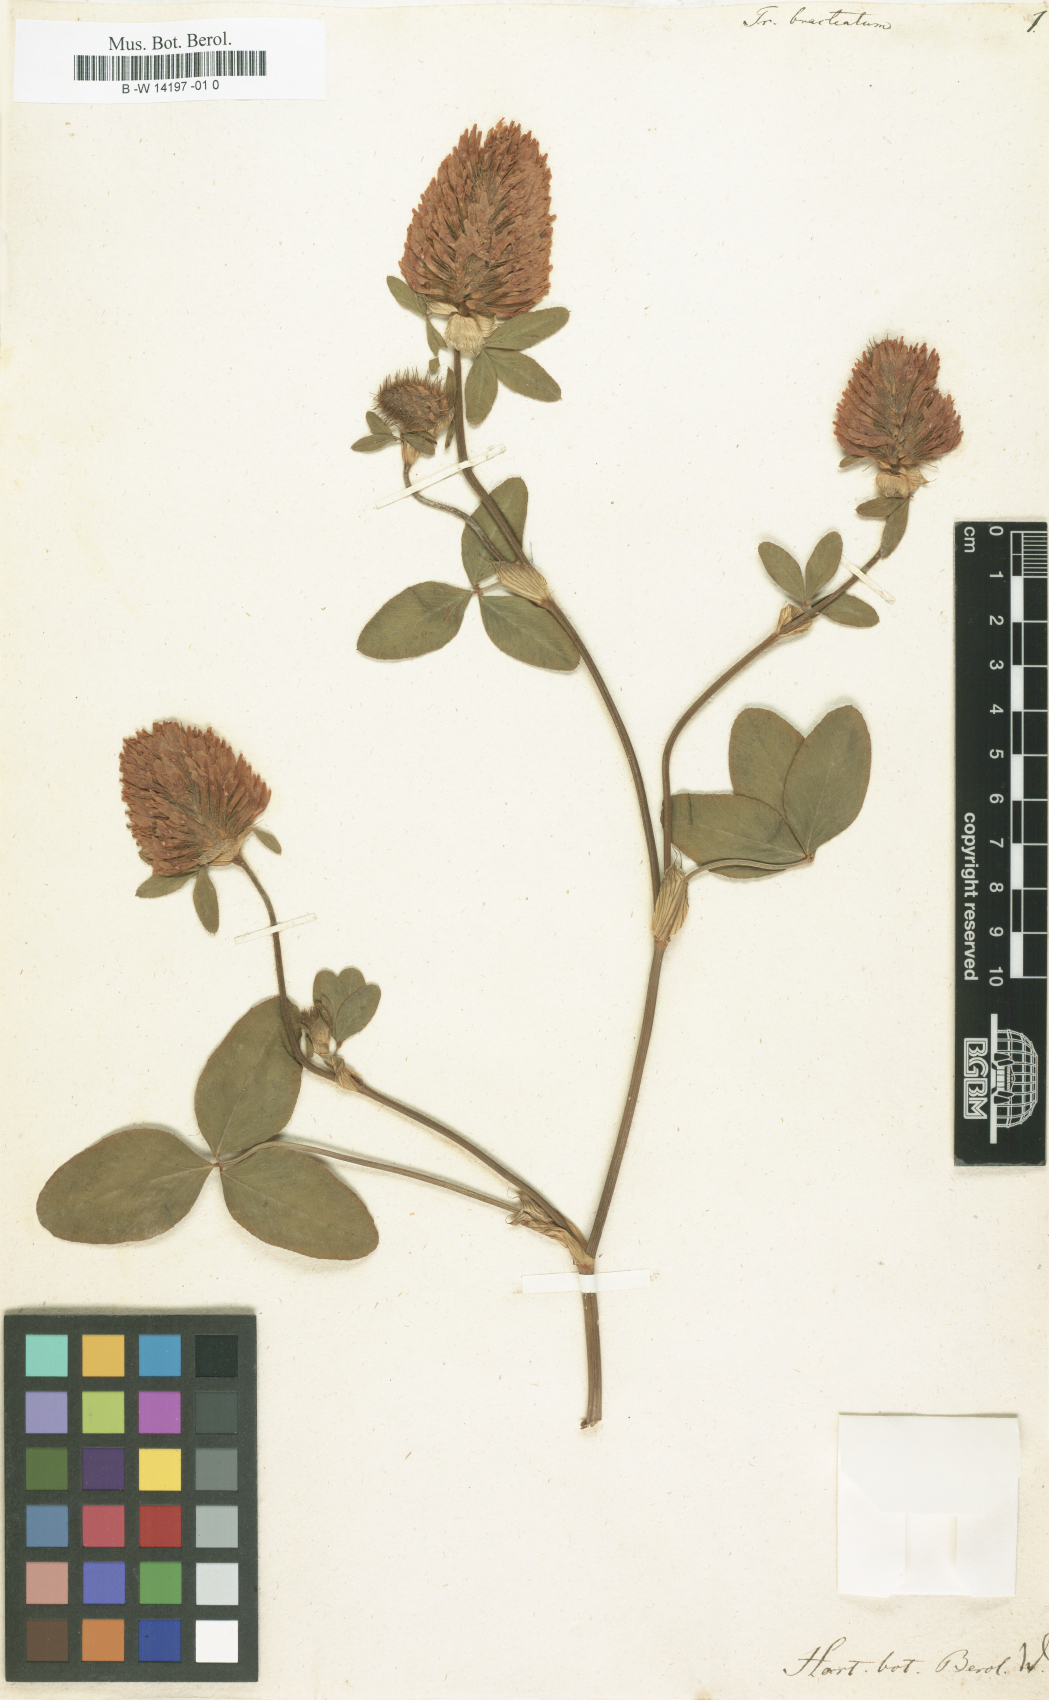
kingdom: Plantae
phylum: Tracheophyta
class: Magnoliopsida
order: Fabales
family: Fabaceae
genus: Trifolium
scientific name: Trifolium pratense
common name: Red clover
